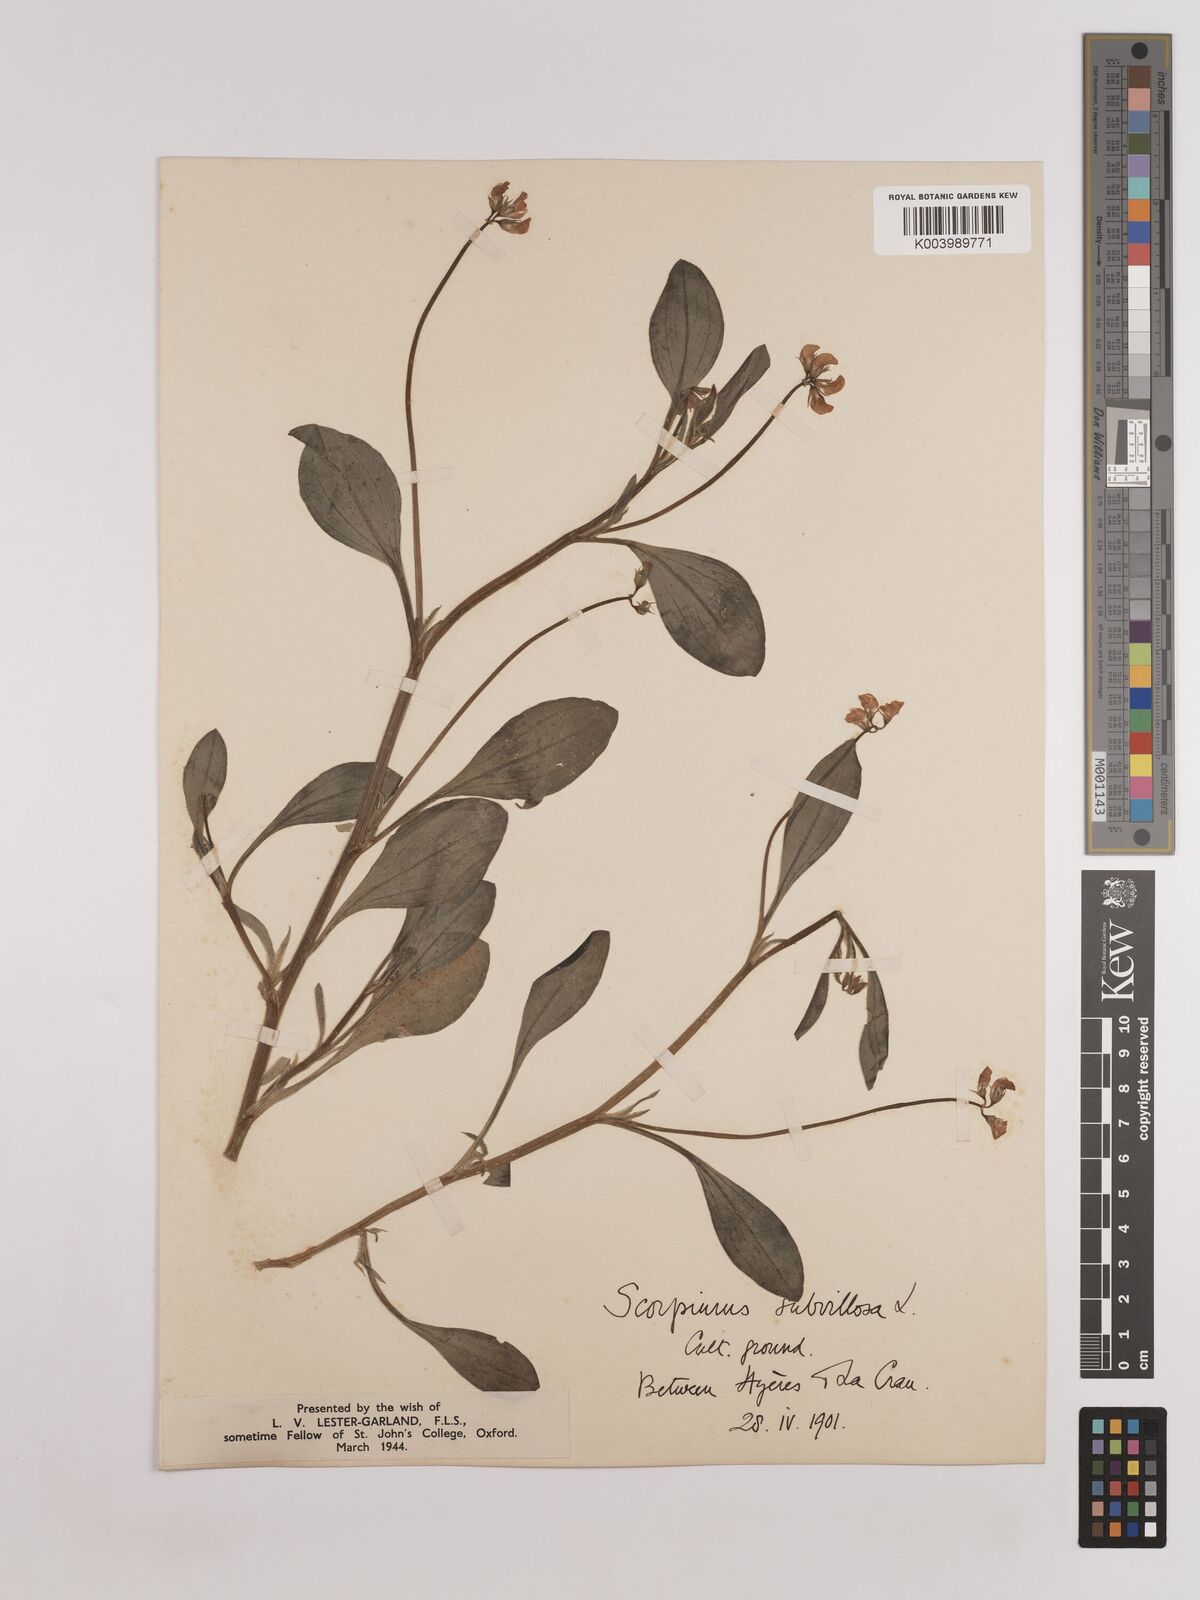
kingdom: Plantae
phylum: Tracheophyta
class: Magnoliopsida
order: Fabales
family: Fabaceae
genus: Scorpiurus
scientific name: Scorpiurus muricatus
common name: Caterpillar-plant
